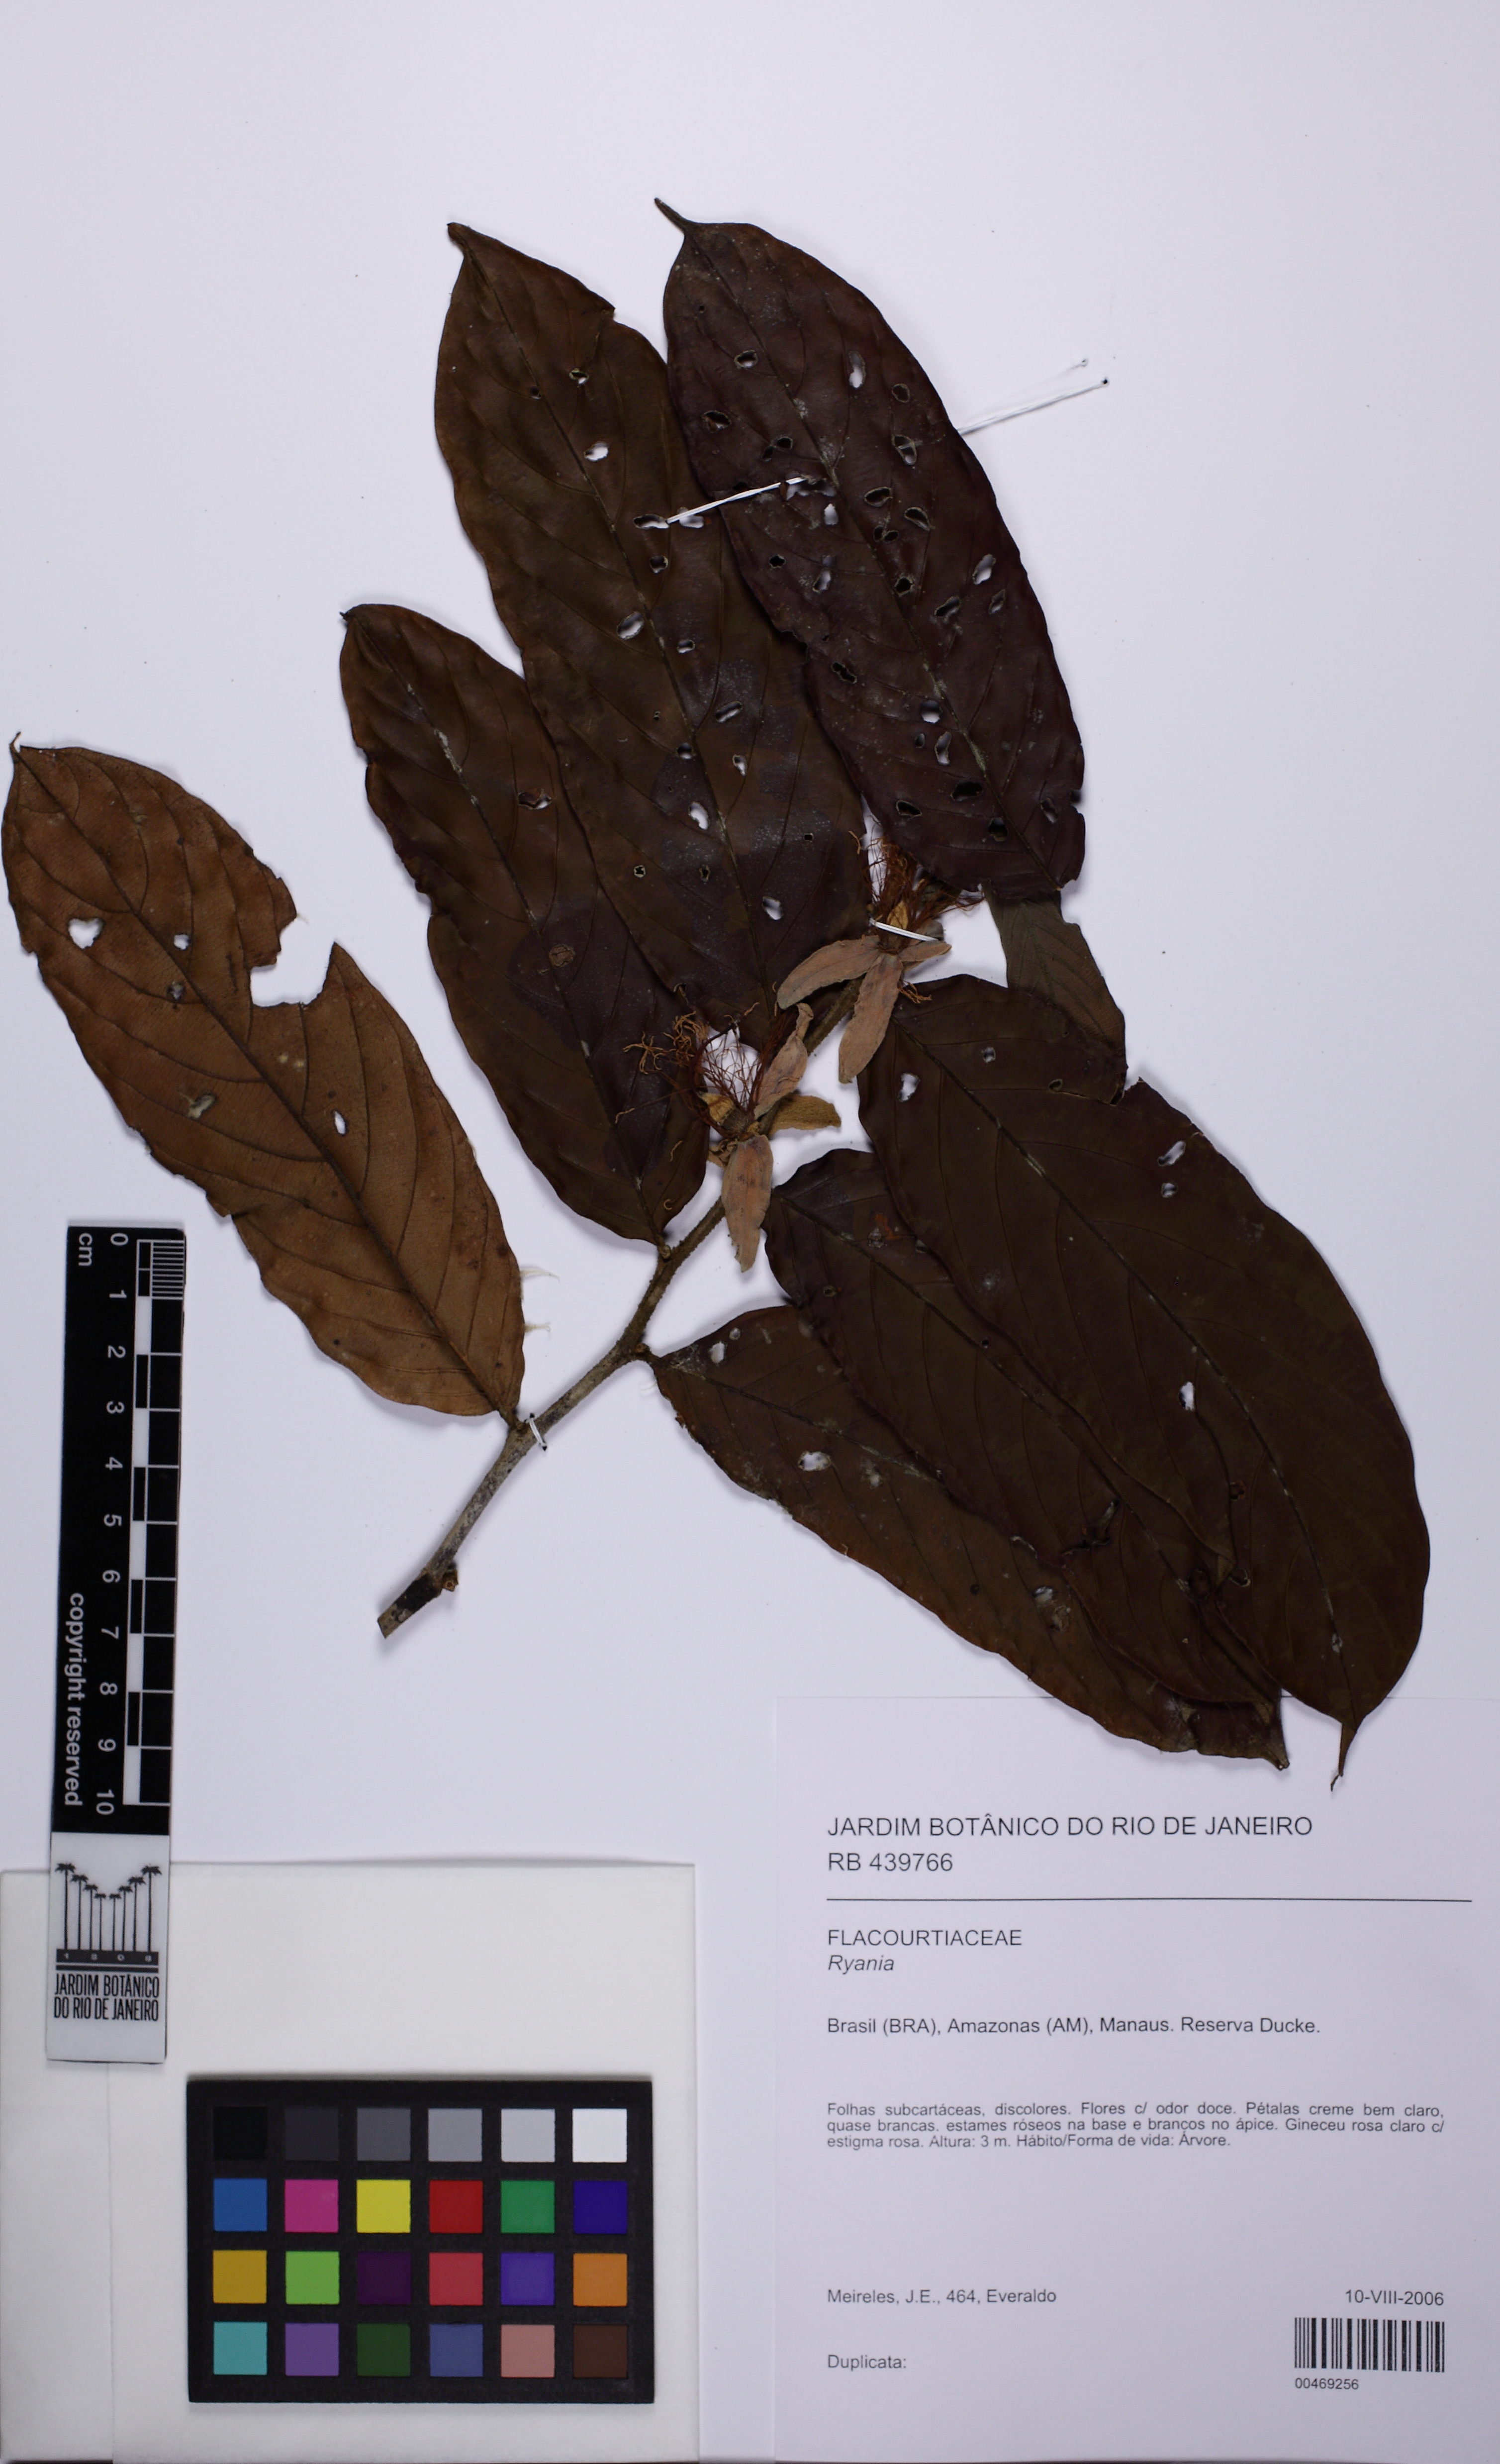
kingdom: Plantae
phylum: Tracheophyta
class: Magnoliopsida
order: Malpighiales
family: Salicaceae
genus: Ryania
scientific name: Ryania
